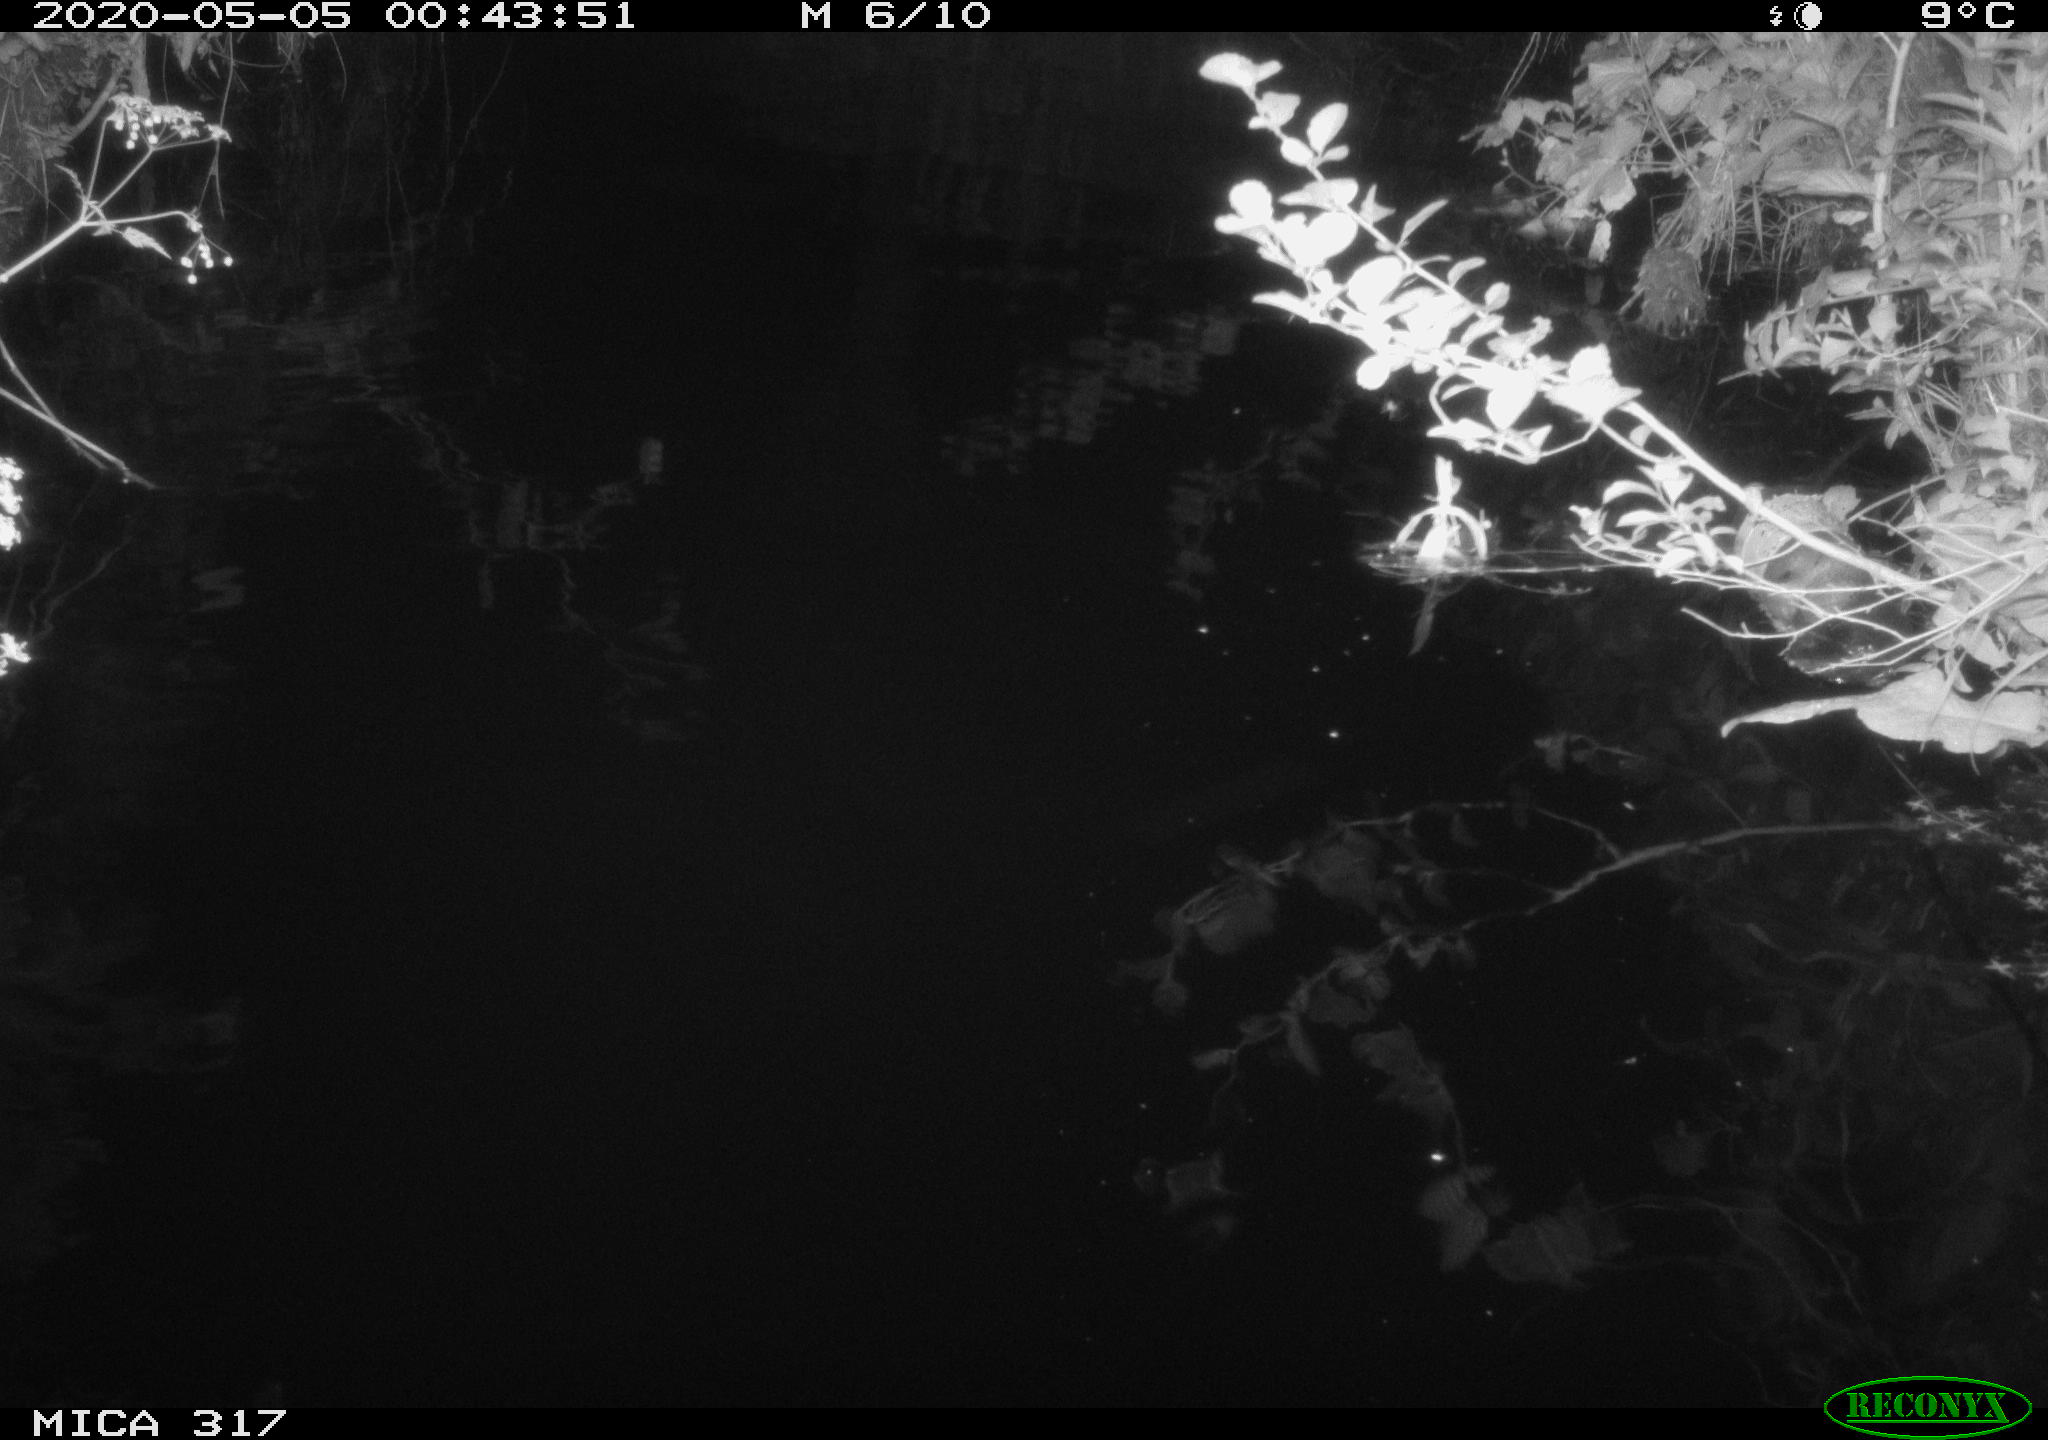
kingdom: Animalia
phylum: Chordata
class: Aves
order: Anseriformes
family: Anatidae
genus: Anas
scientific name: Anas platyrhynchos
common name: Mallard
